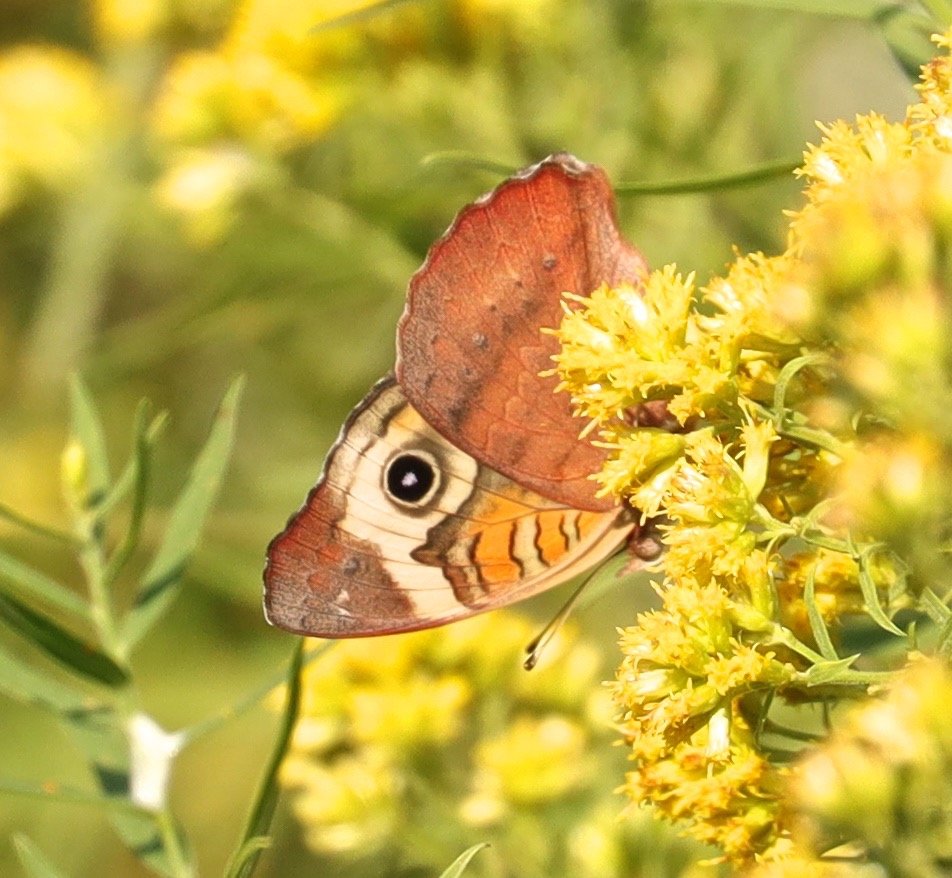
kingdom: Animalia
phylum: Arthropoda
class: Insecta
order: Lepidoptera
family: Nymphalidae
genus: Junonia
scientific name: Junonia coenia
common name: Common Buckeye
